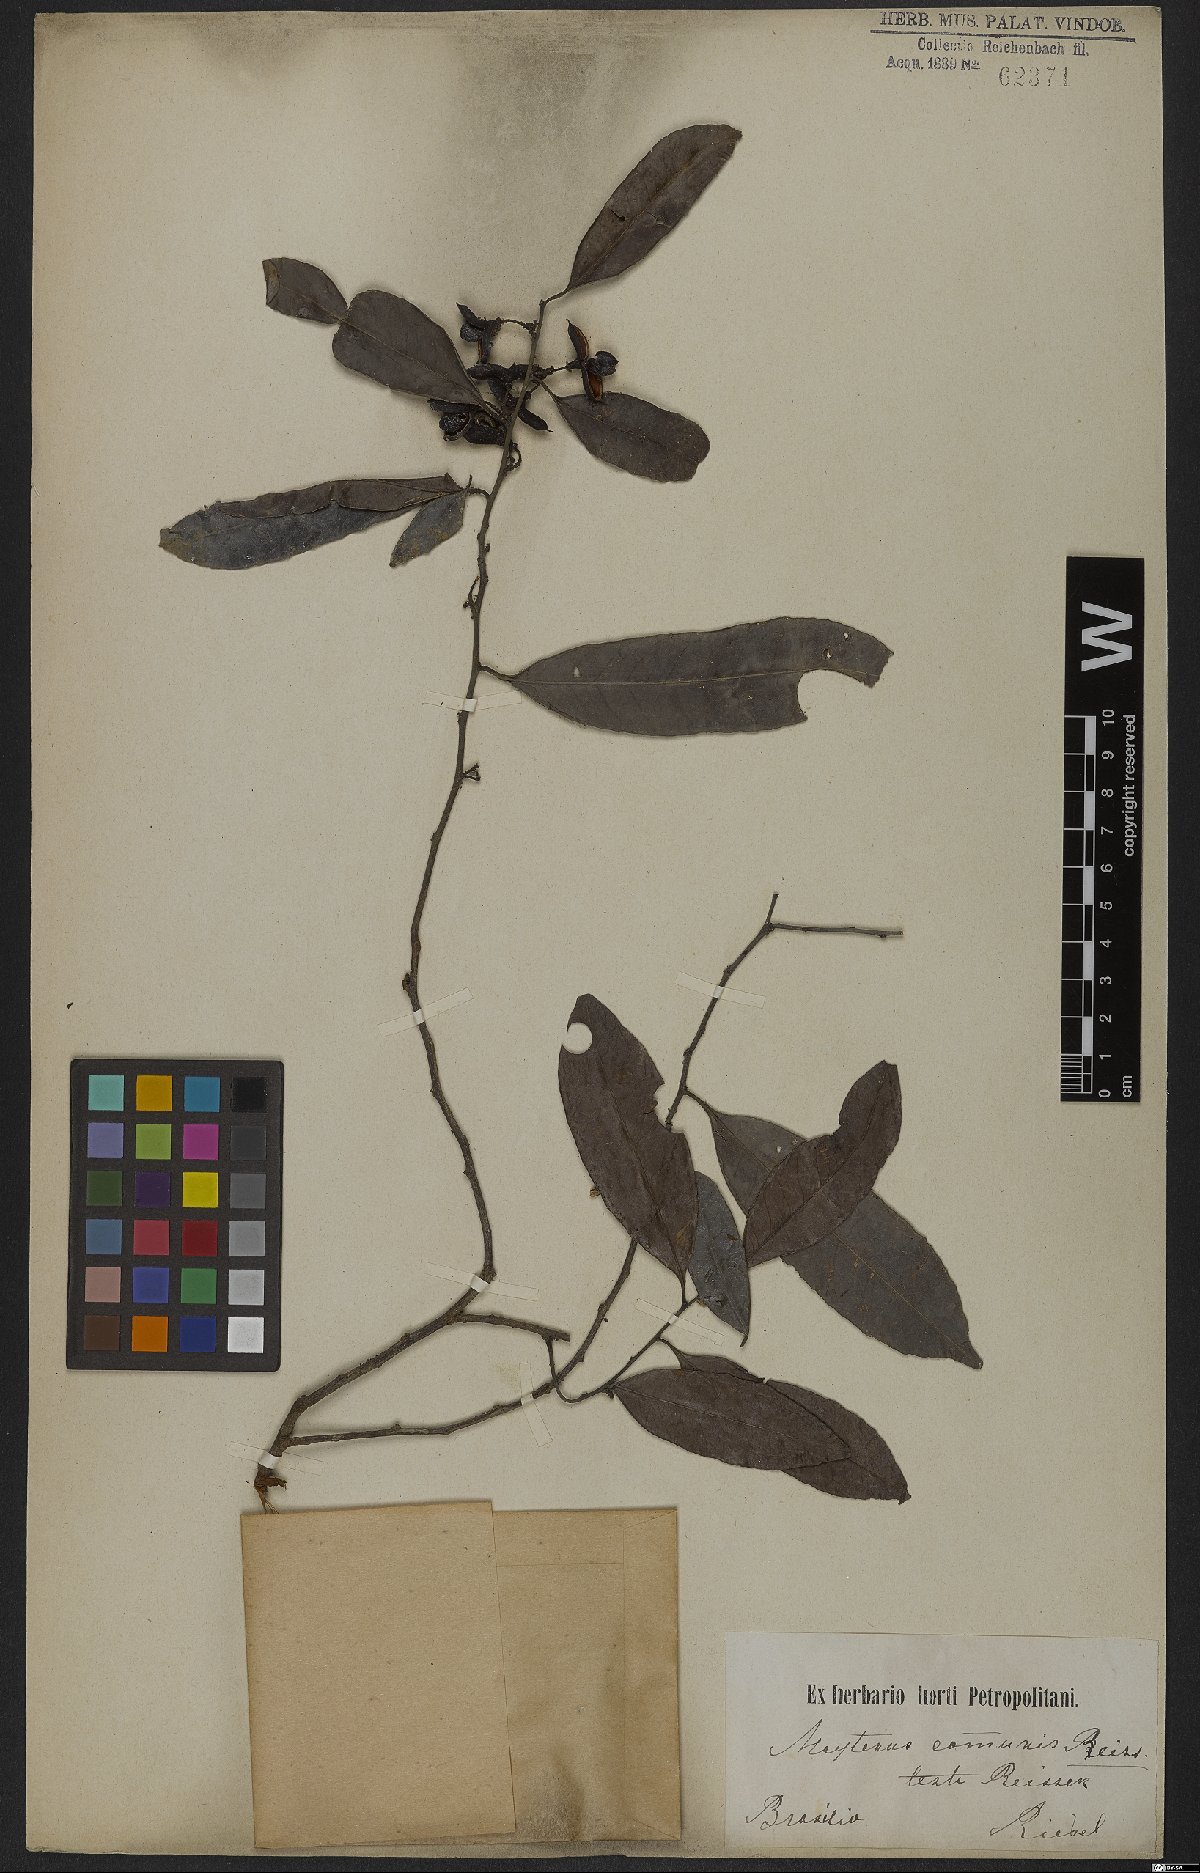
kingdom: Plantae
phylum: Tracheophyta
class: Magnoliopsida
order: Celastrales
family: Celastraceae
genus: Monteverdia
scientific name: Monteverdia communis
